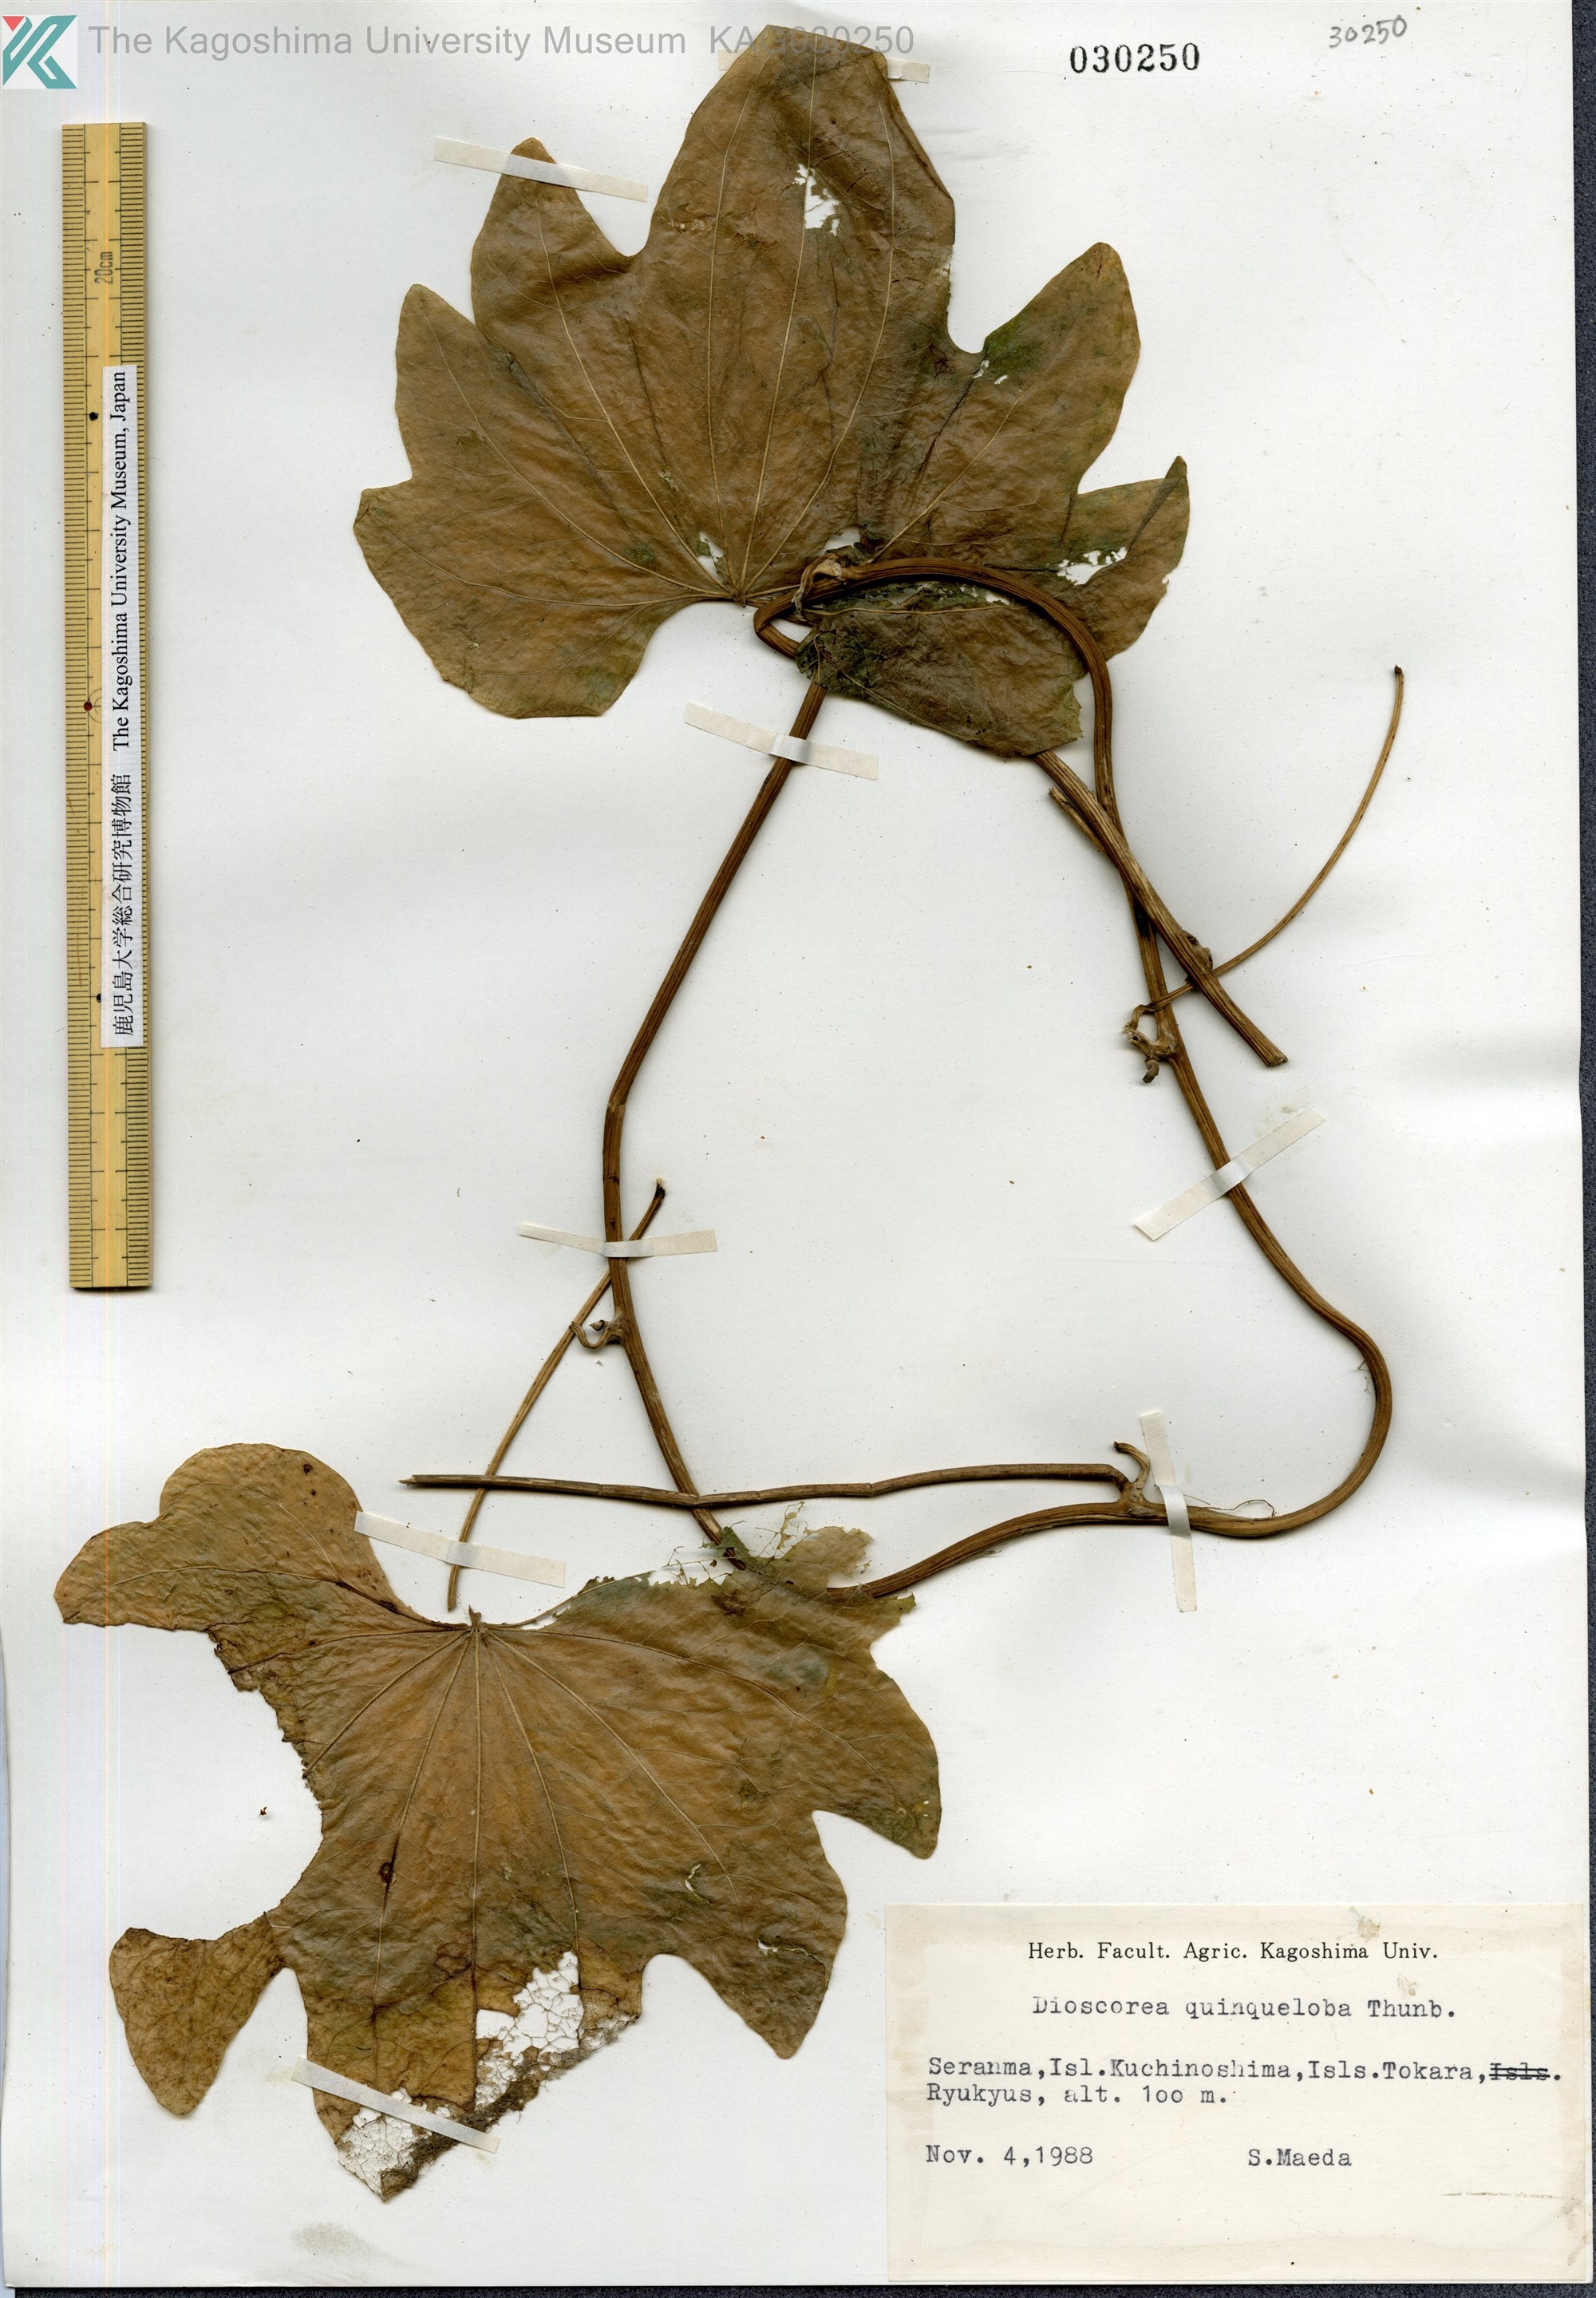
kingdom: Plantae
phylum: Tracheophyta
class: Liliopsida
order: Dioscoreales
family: Dioscoreaceae
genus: Dioscorea
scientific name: Dioscorea quinquelobata
